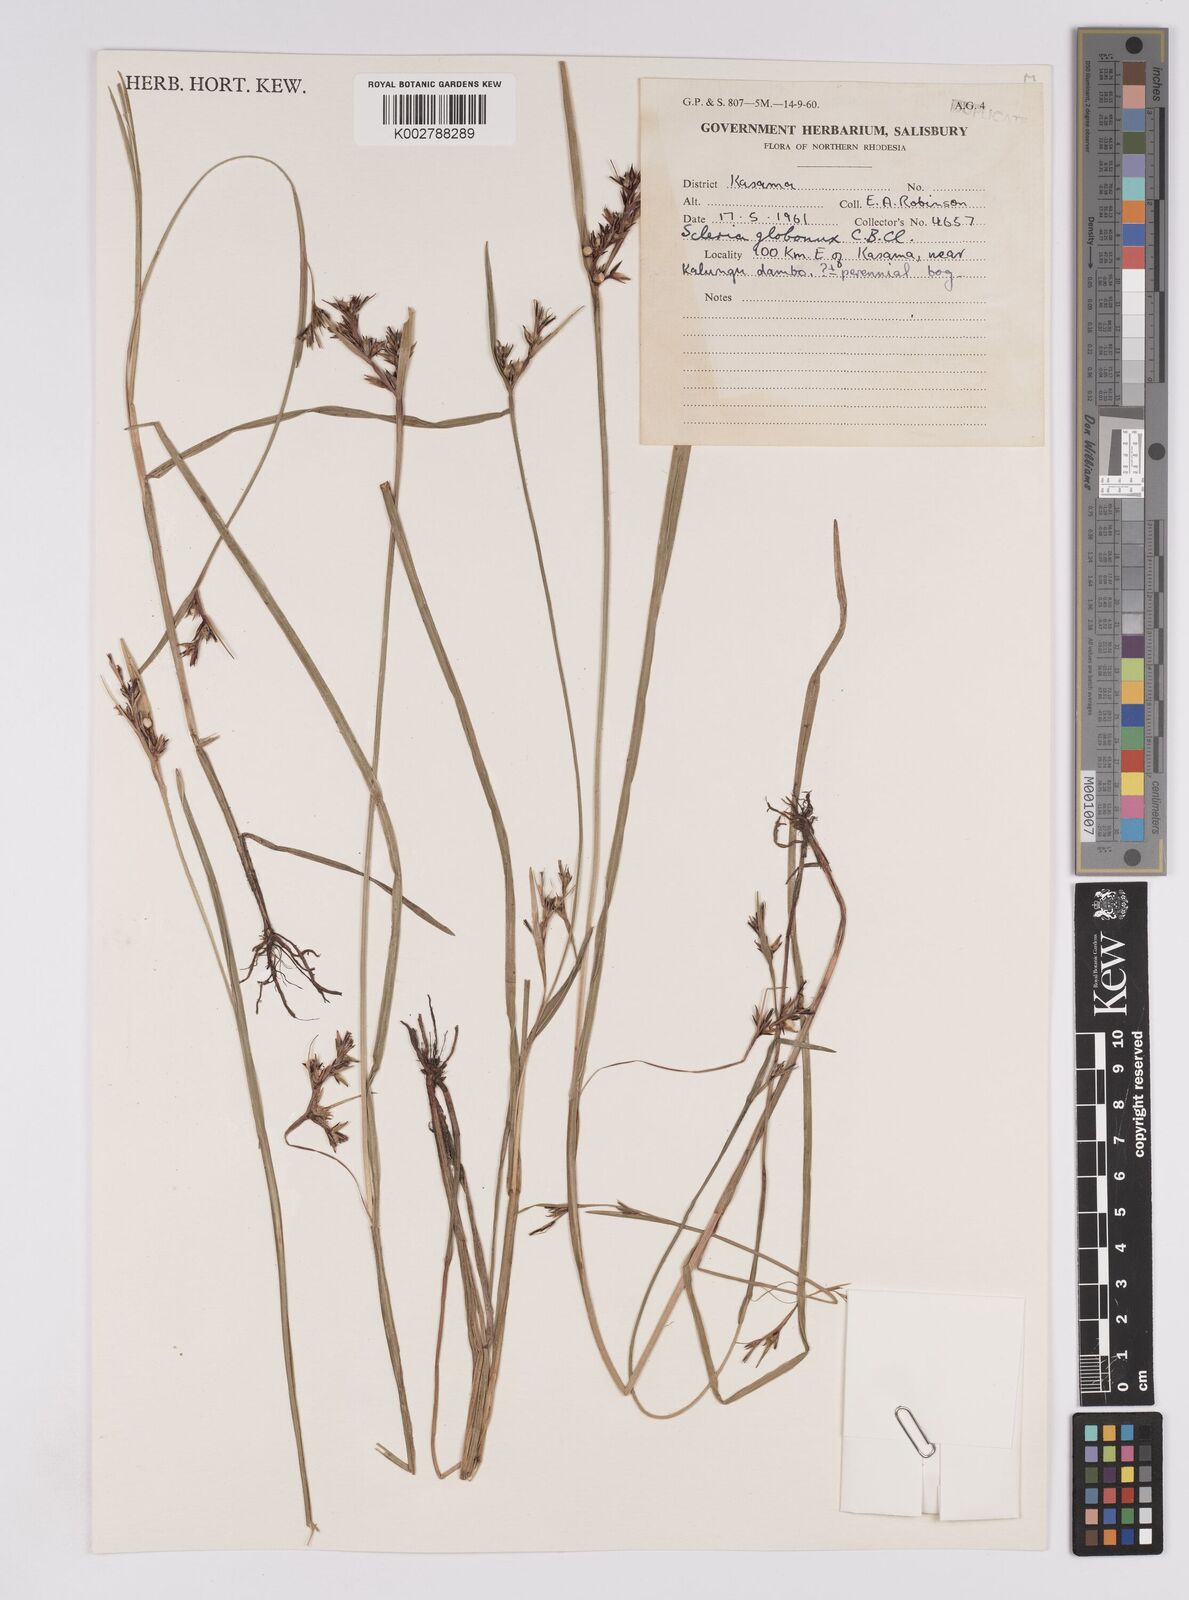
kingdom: Plantae
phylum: Tracheophyta
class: Liliopsida
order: Poales
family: Cyperaceae
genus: Scleria
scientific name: Scleria globonux
